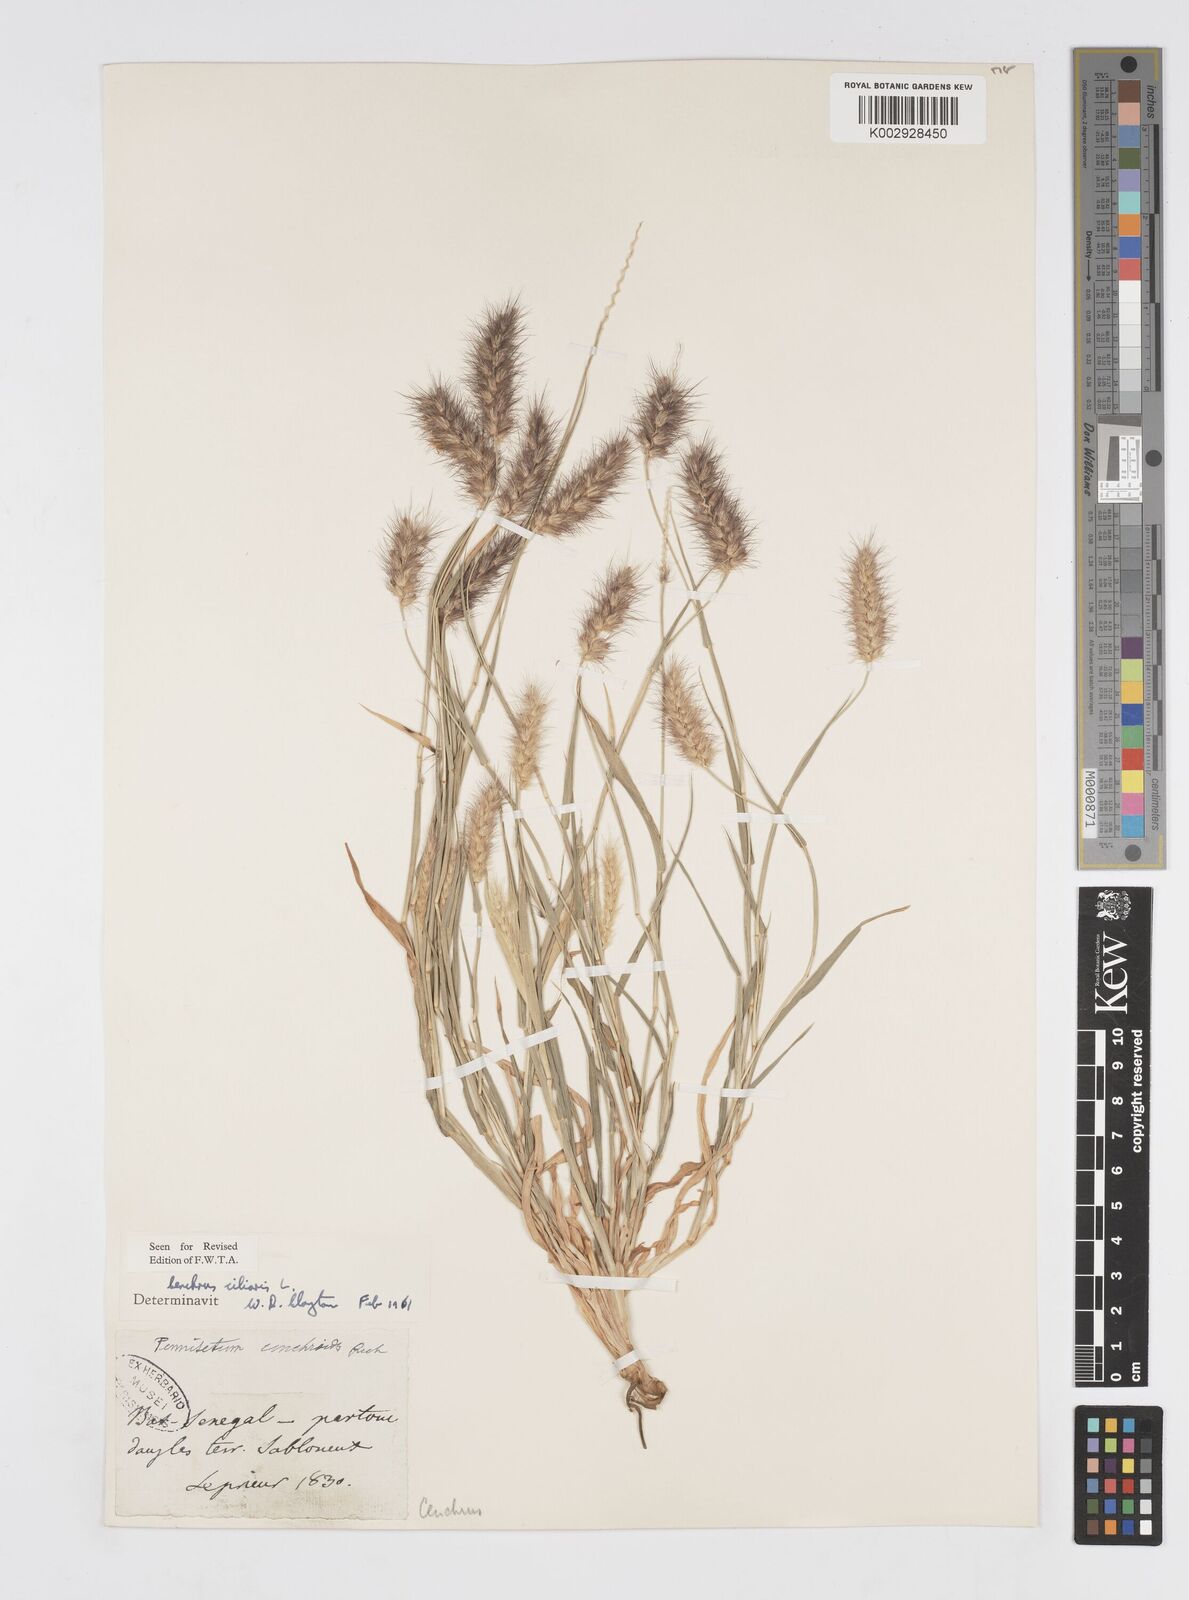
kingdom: Plantae
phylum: Tracheophyta
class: Liliopsida
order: Poales
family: Poaceae
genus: Cenchrus
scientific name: Cenchrus ciliaris
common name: Buffelgrass
